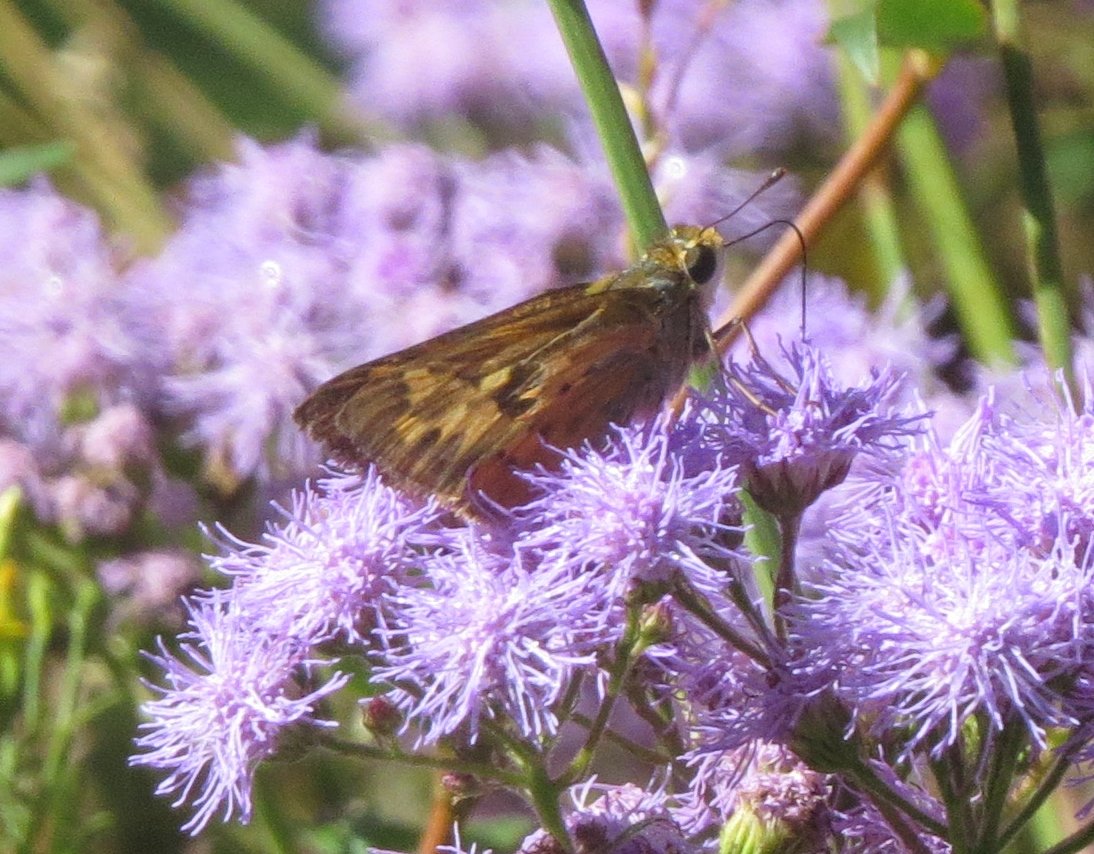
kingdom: Animalia
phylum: Arthropoda
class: Insecta
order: Lepidoptera
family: Hesperiidae
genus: Hylephila
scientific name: Hylephila phyleus
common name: Fiery Skipper
